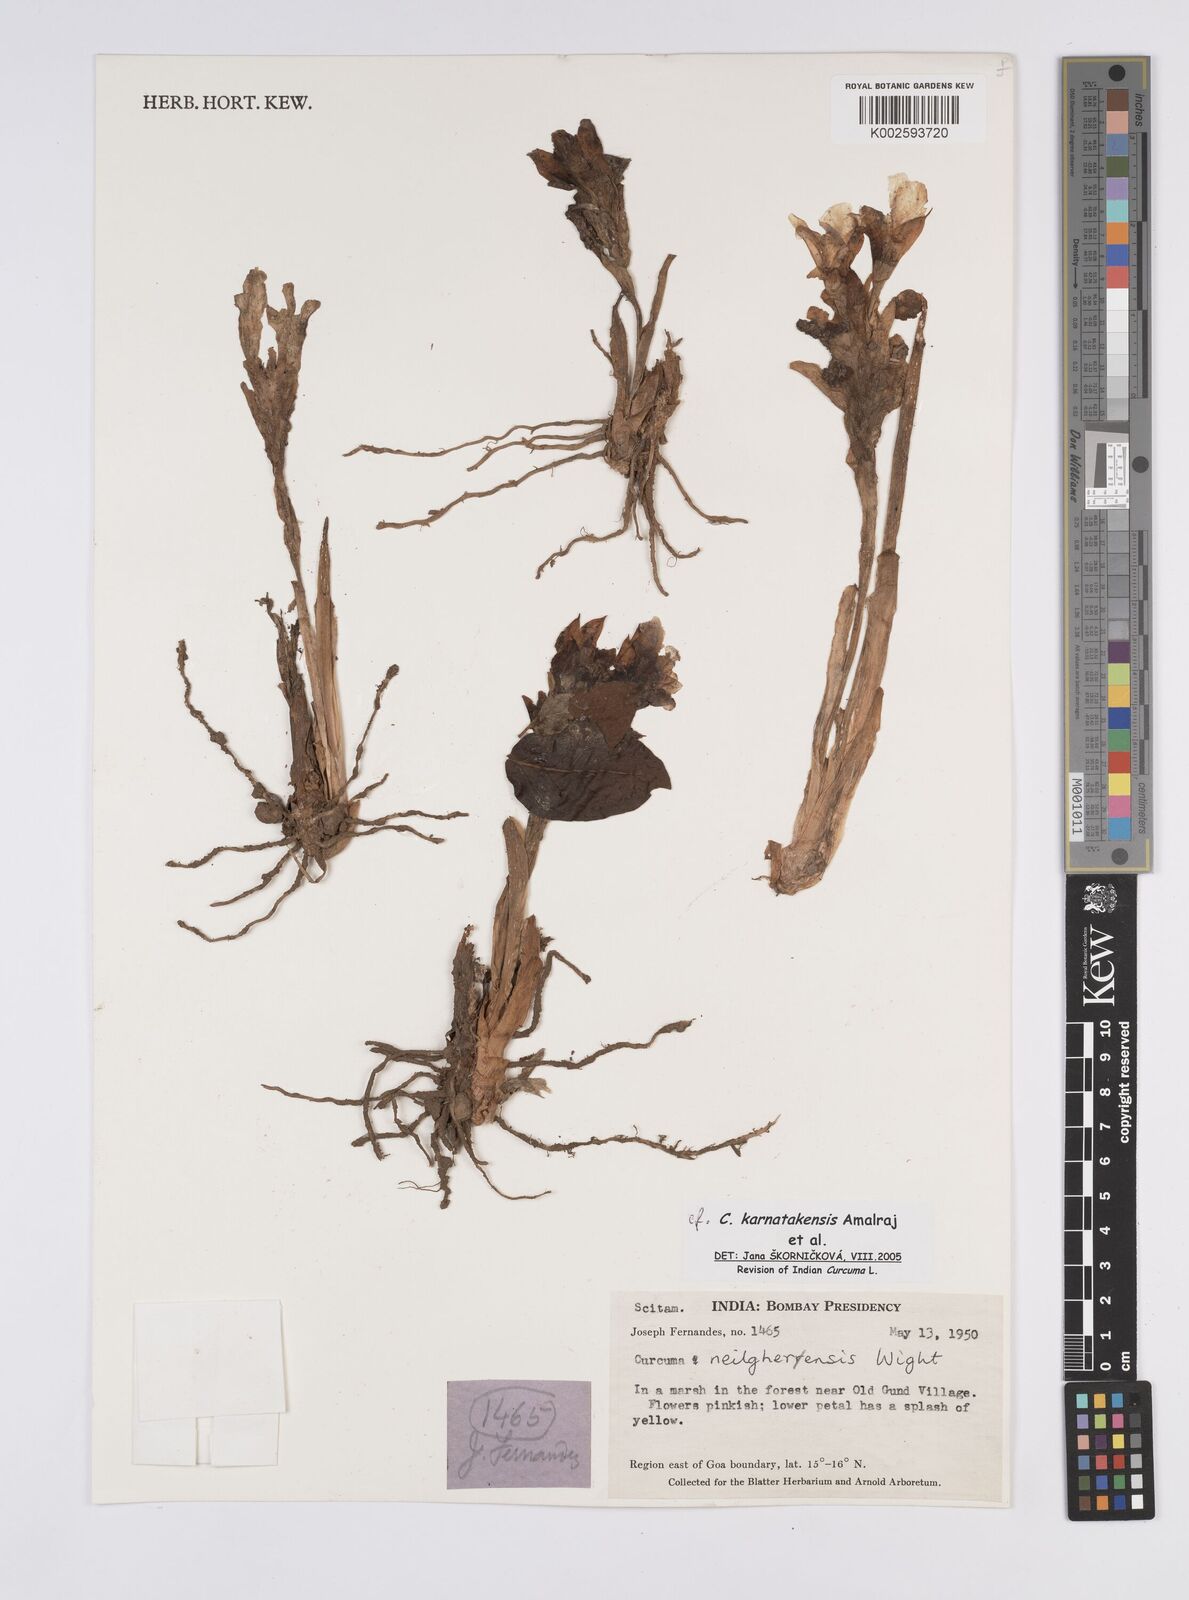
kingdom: Plantae
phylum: Tracheophyta
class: Liliopsida
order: Zingiberales
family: Zingiberaceae
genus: Curcuma
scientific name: Curcuma karnatakensis
